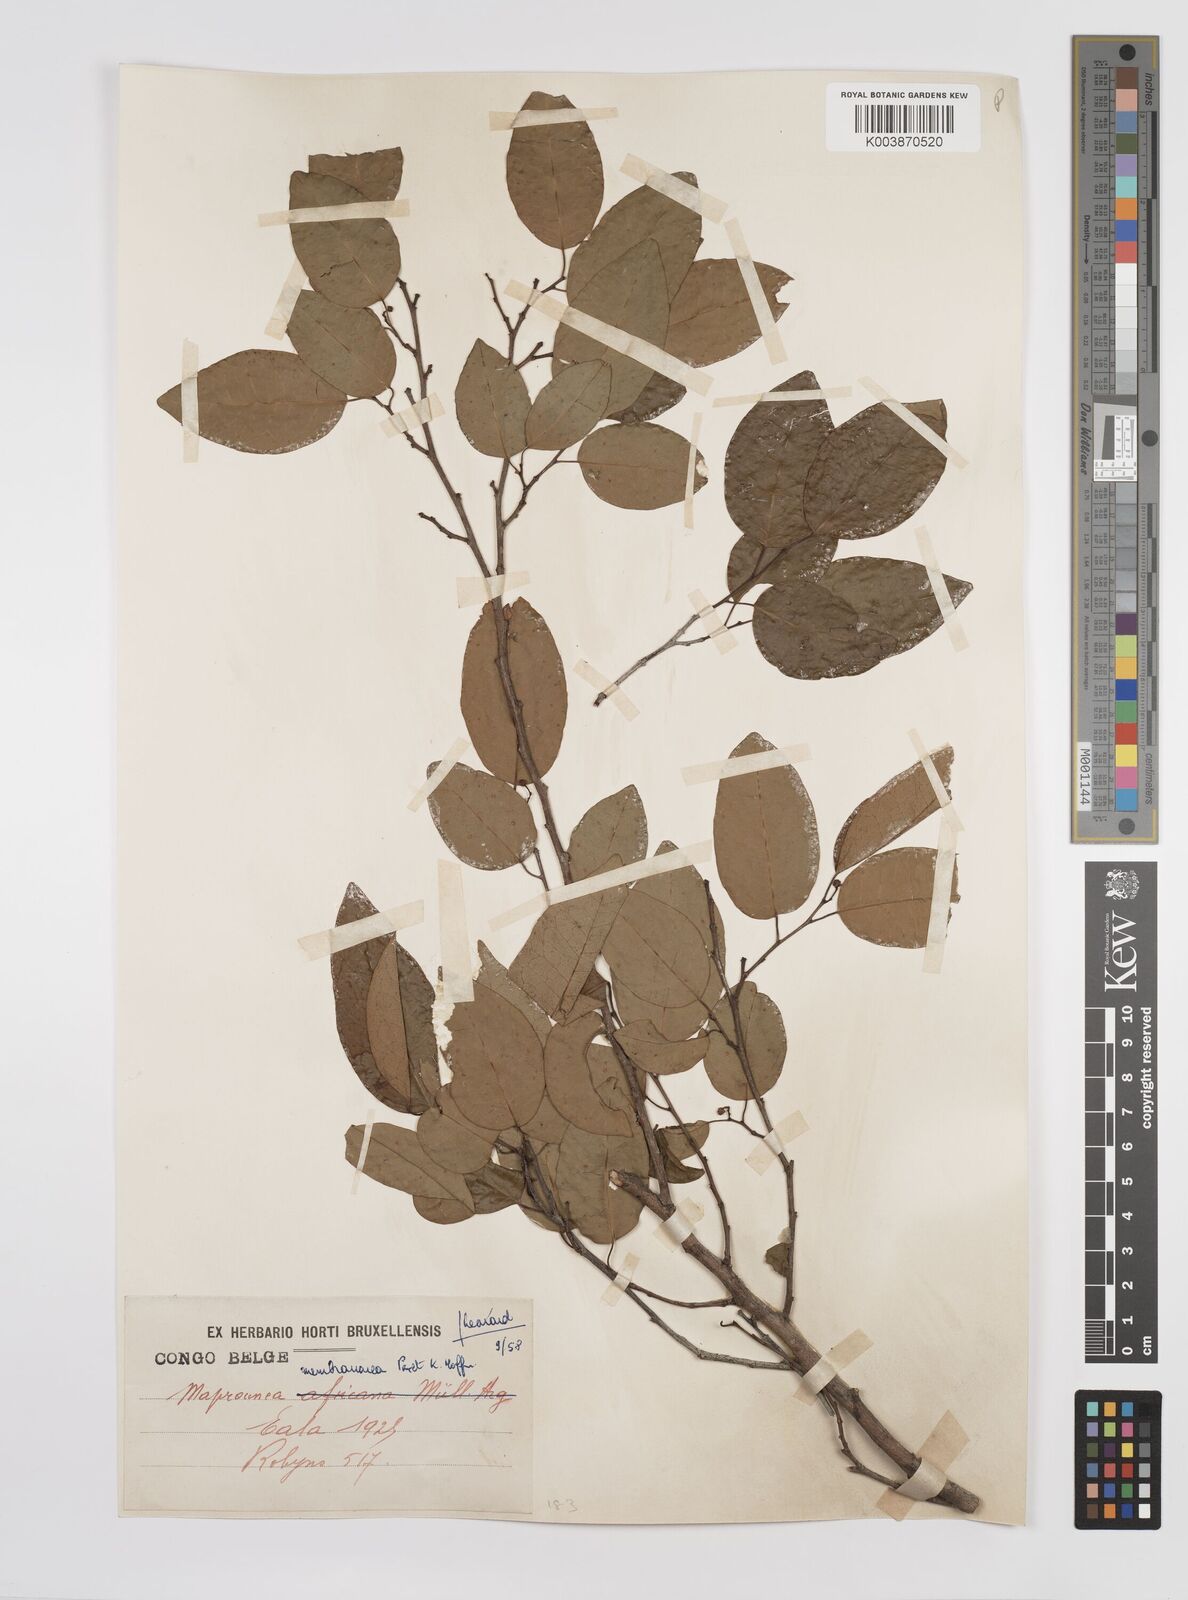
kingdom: Plantae
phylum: Tracheophyta
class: Magnoliopsida
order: Malpighiales
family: Euphorbiaceae
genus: Maprounea
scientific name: Maprounea membranacea
